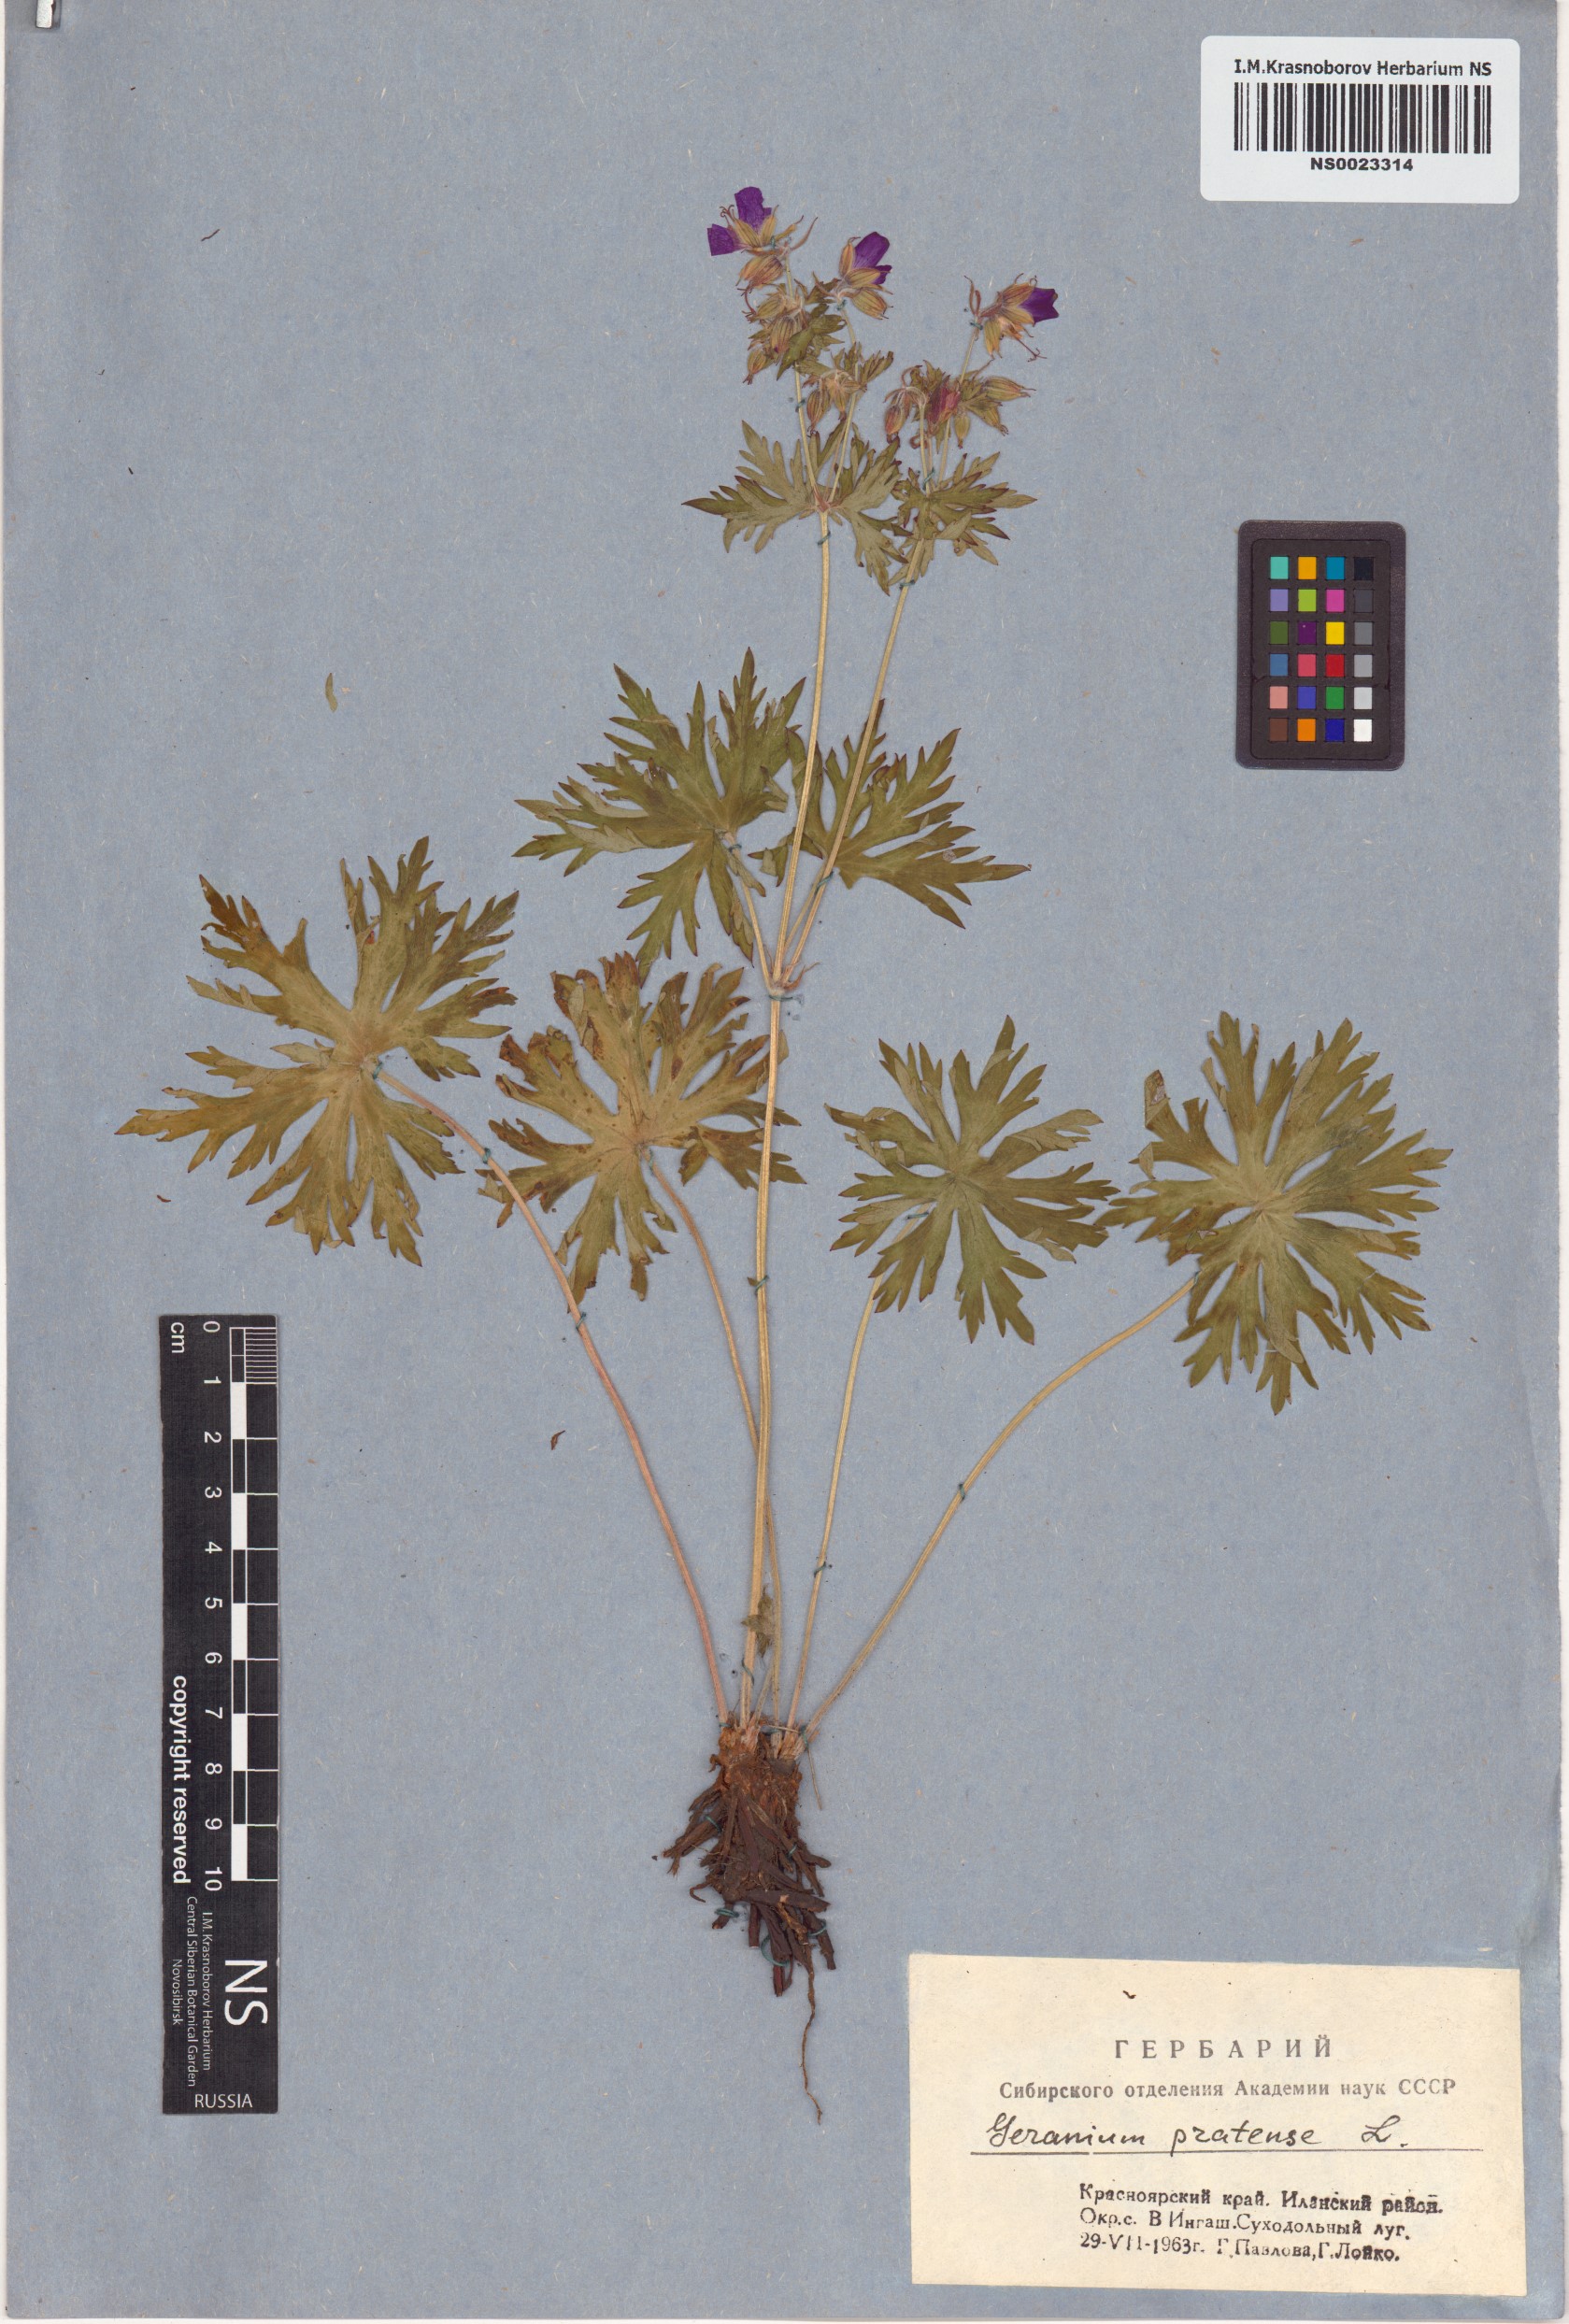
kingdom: Plantae
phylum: Tracheophyta
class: Magnoliopsida
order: Geraniales
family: Geraniaceae
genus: Geranium
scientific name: Geranium pratense
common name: Meadow crane's-bill
